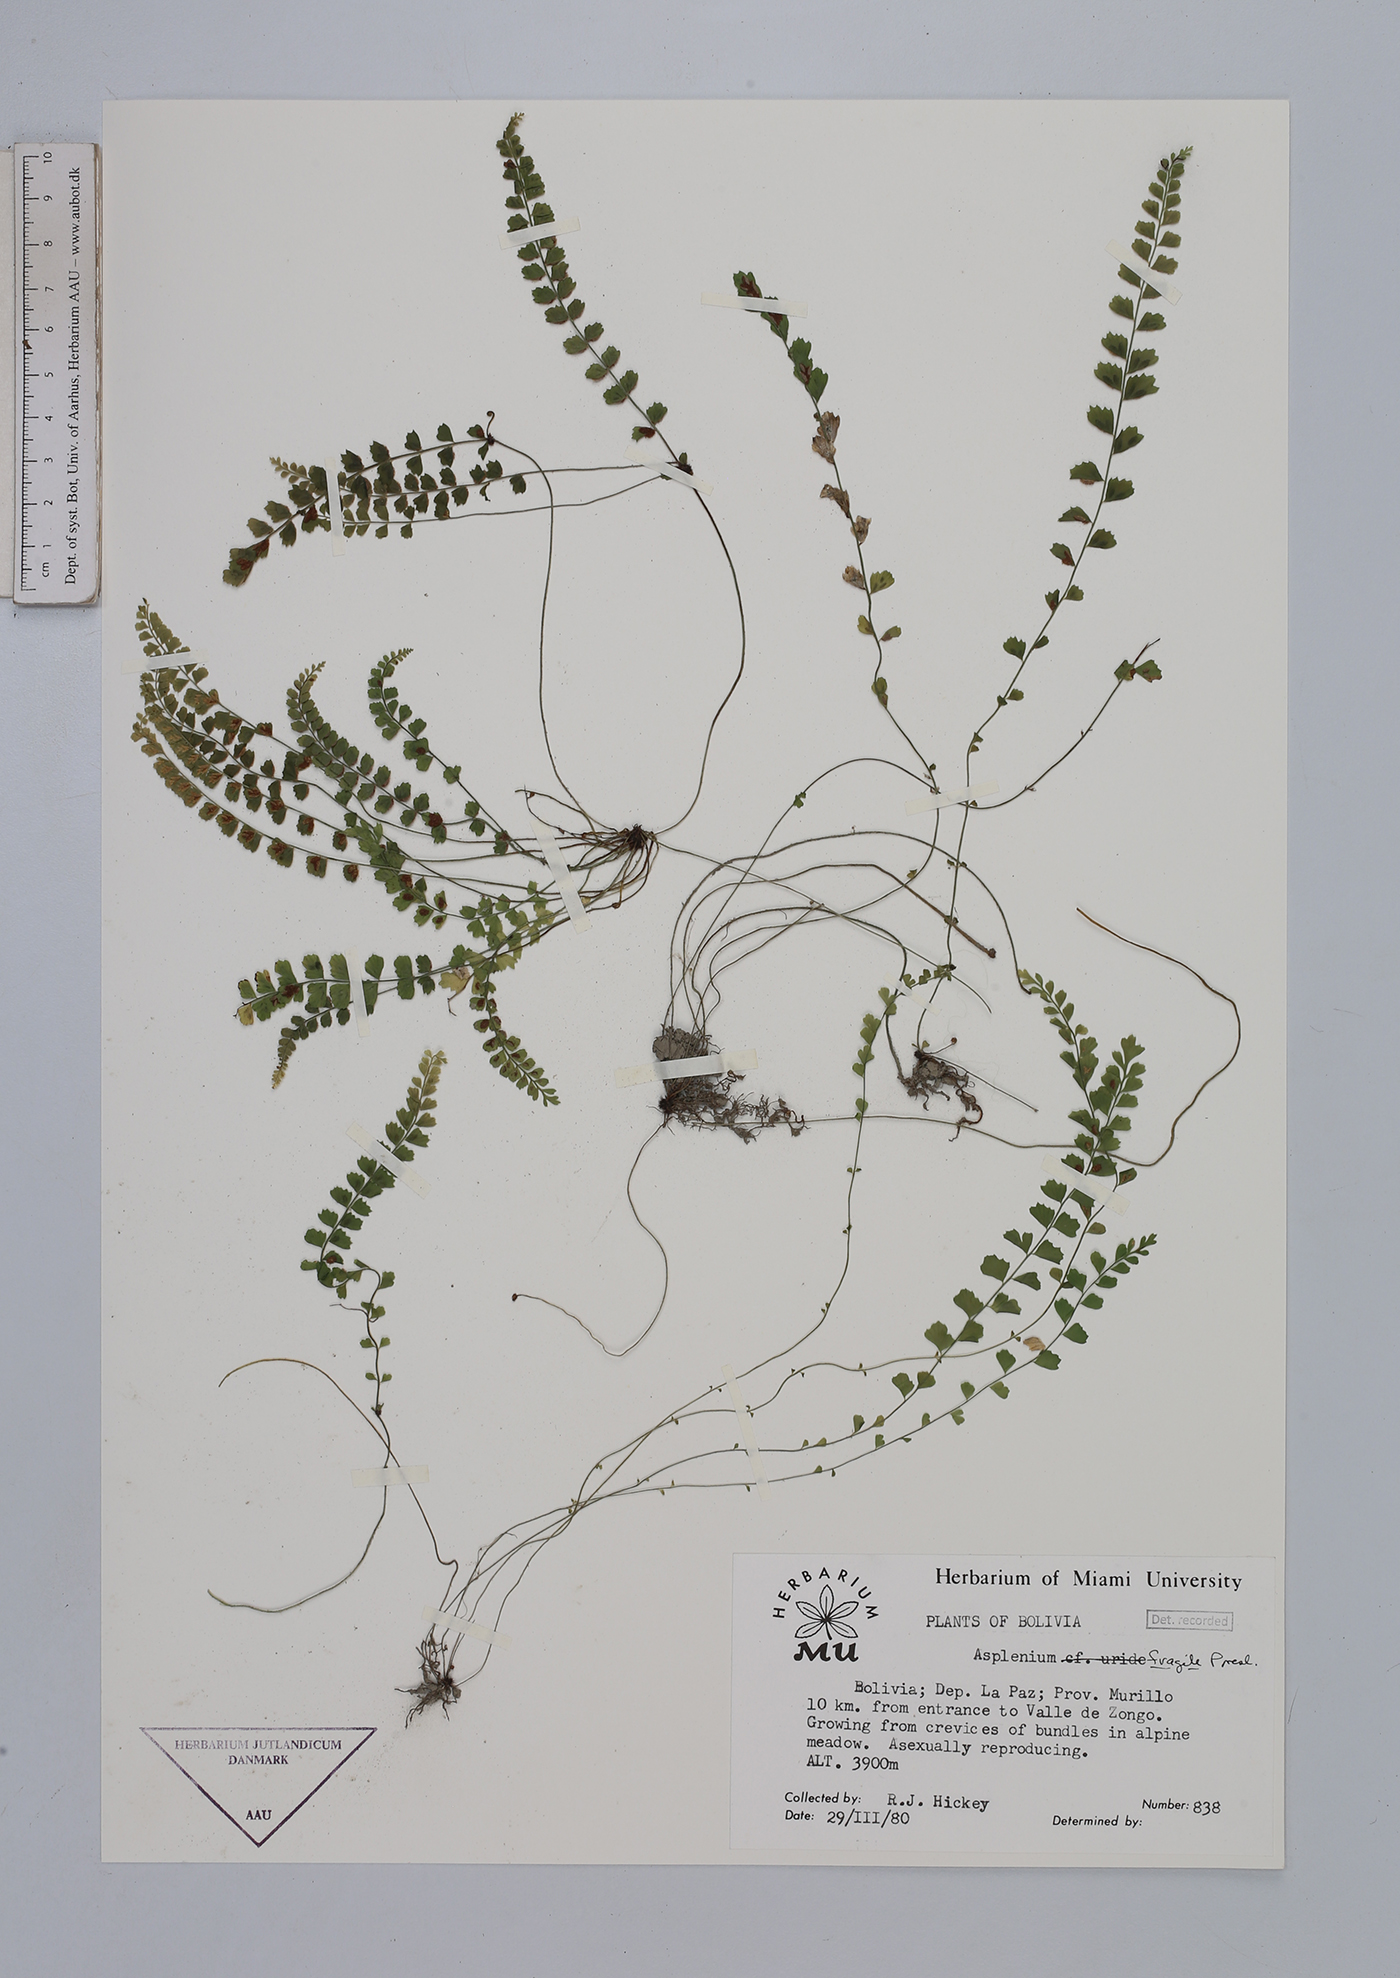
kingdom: Plantae
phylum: Tracheophyta
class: Polypodiopsida
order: Polypodiales
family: Aspleniaceae
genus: Asplenium
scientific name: Asplenium peruvianum
